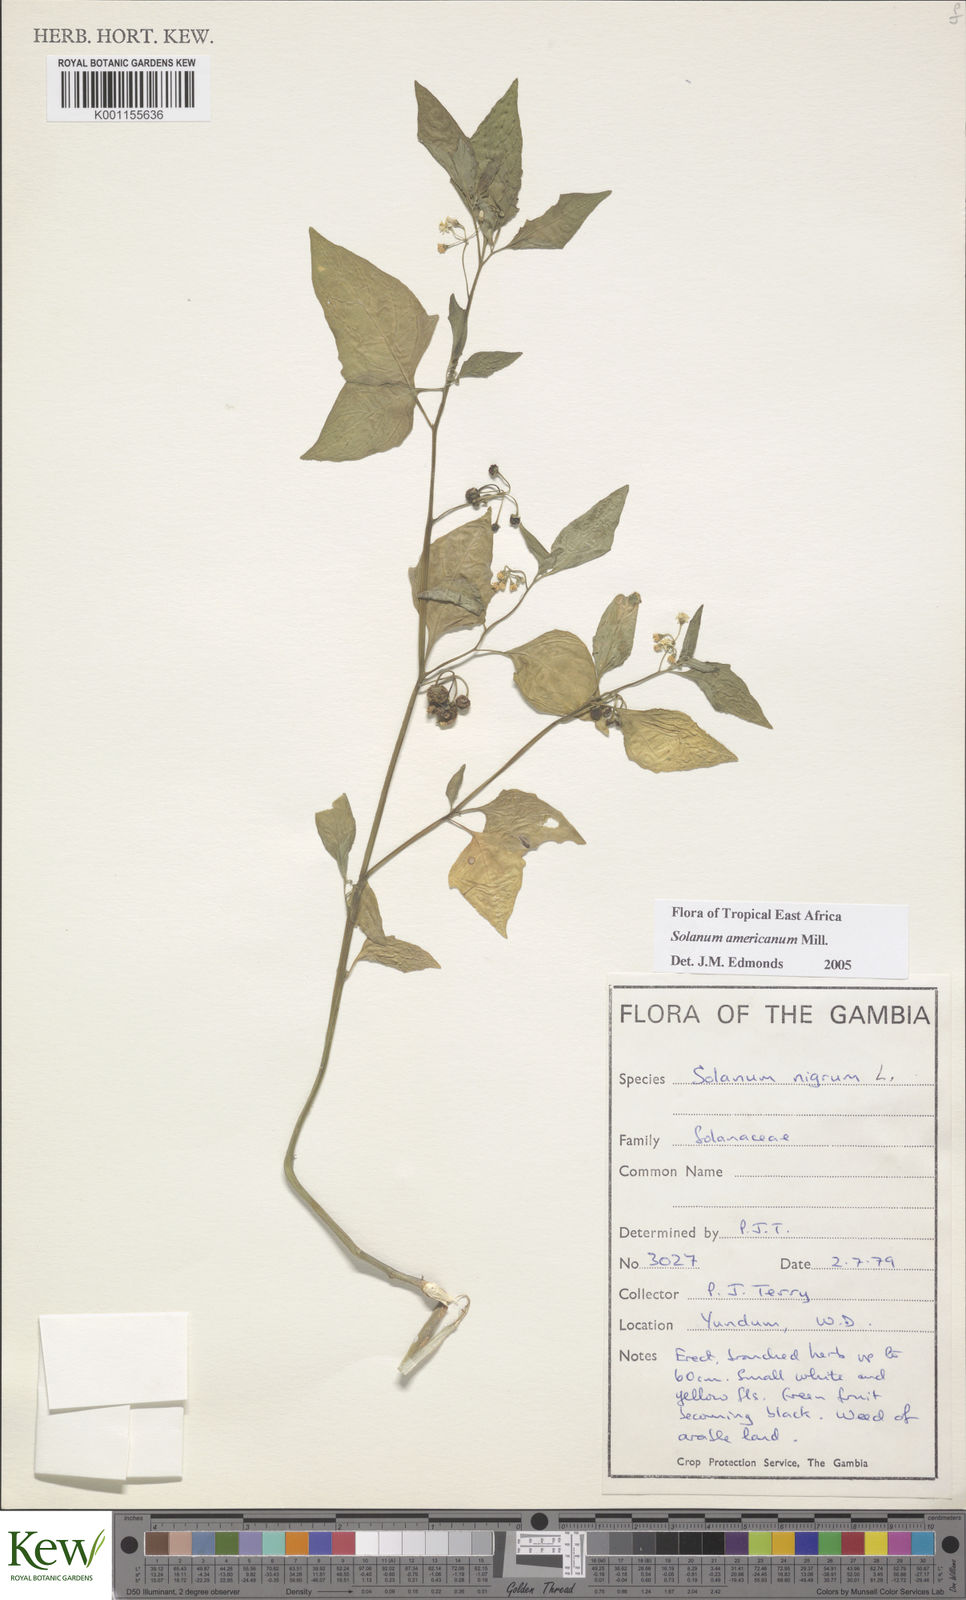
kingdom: Plantae
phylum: Tracheophyta
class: Magnoliopsida
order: Solanales
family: Solanaceae
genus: Solanum
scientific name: Solanum americanum
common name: American black nightshade
